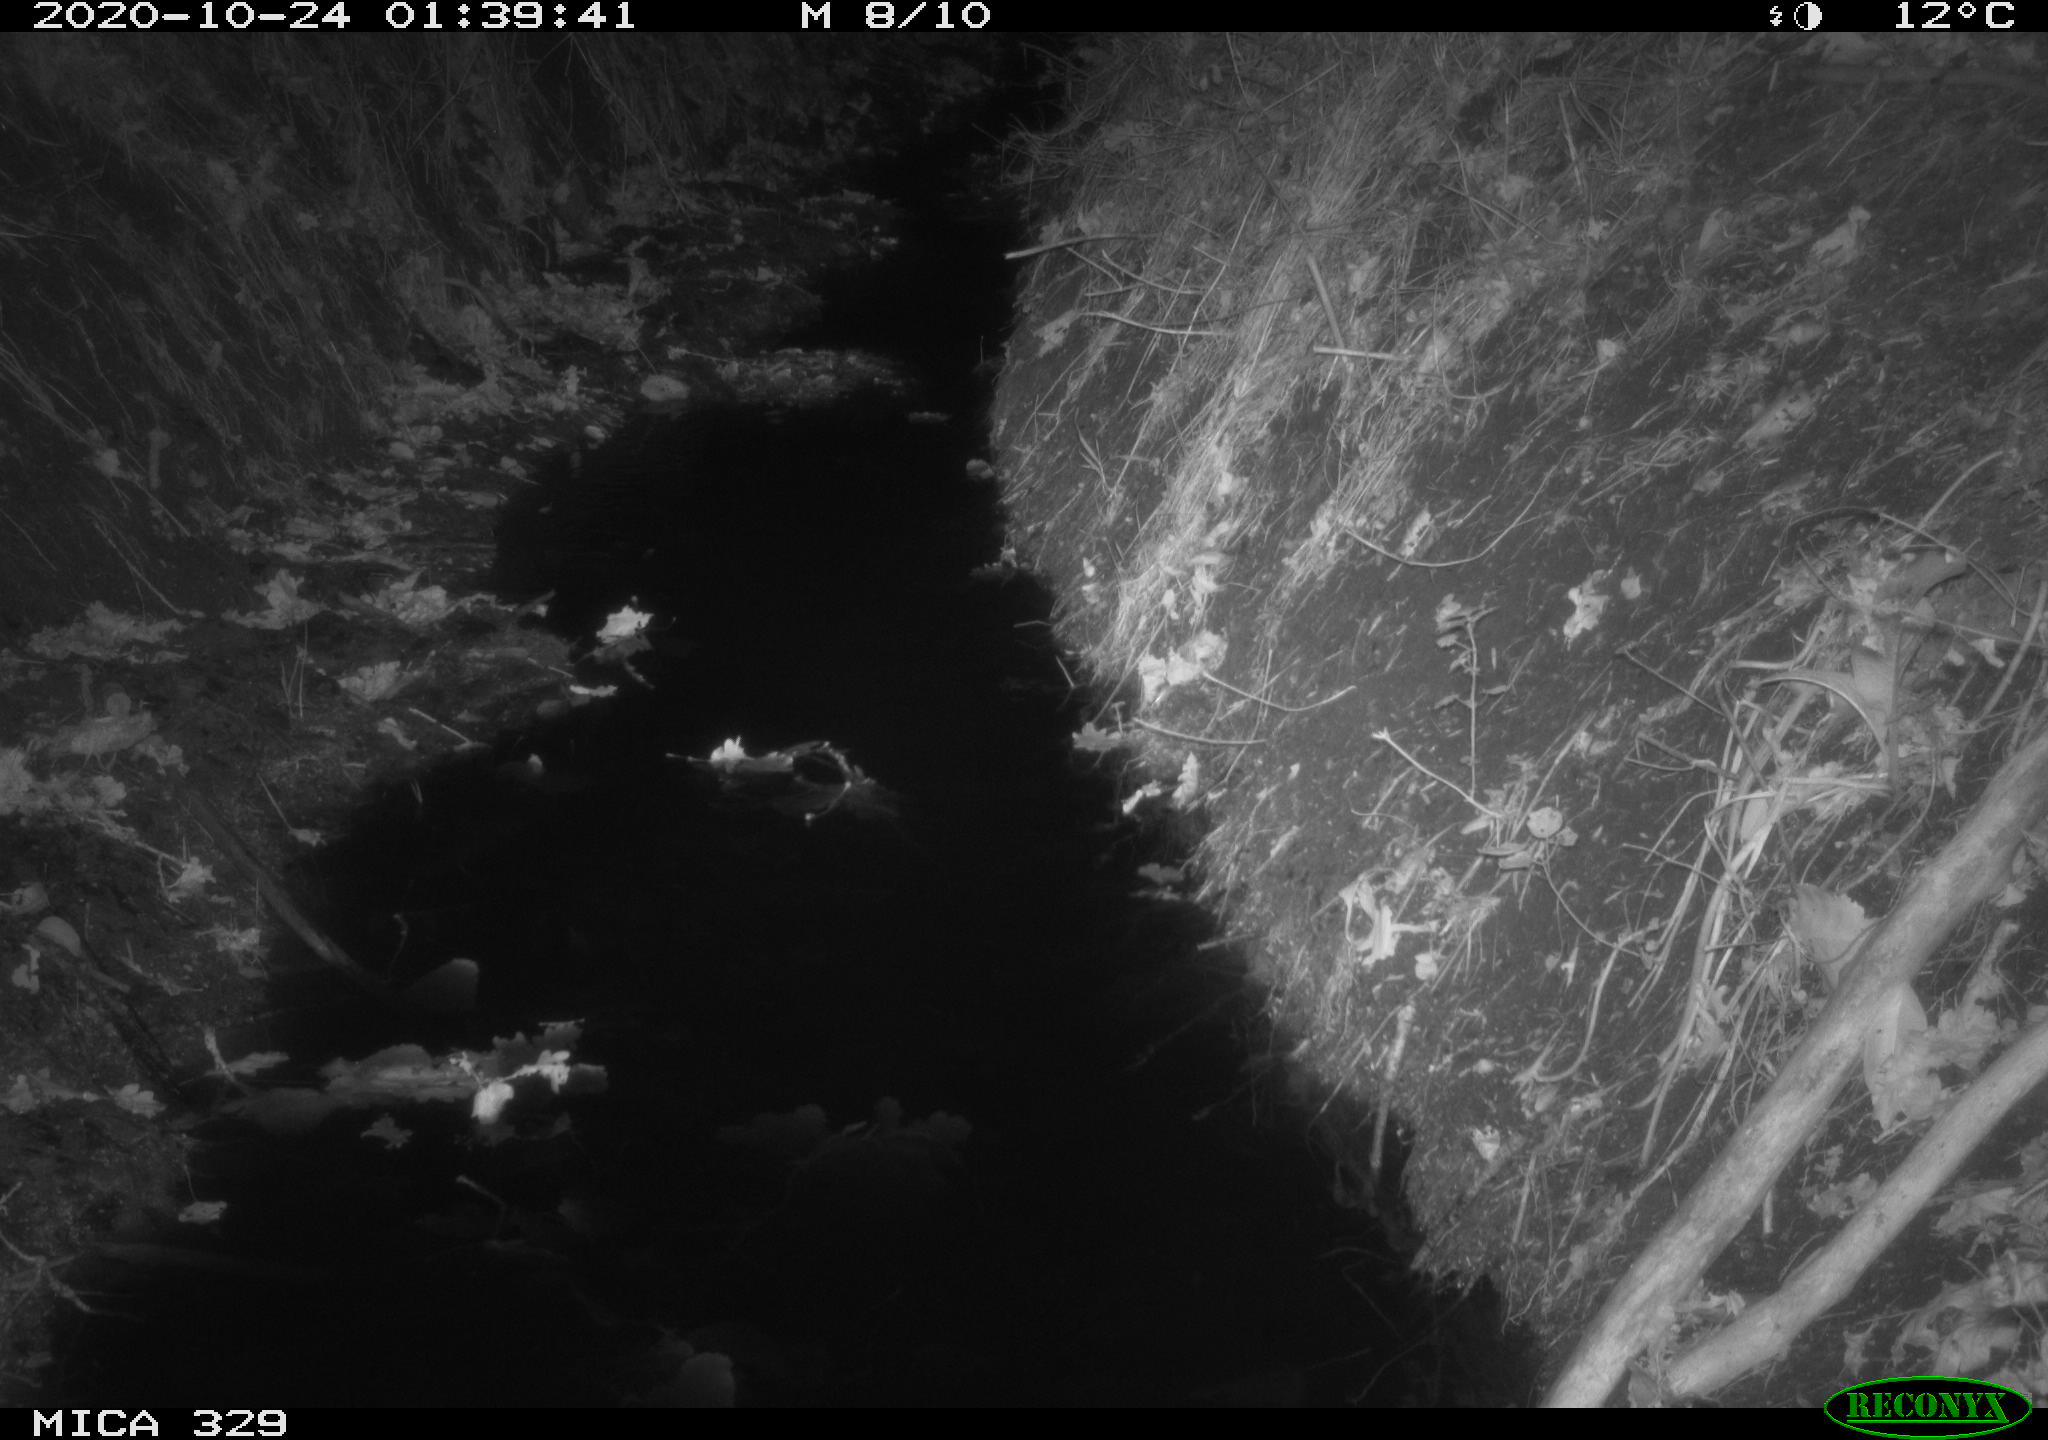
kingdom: Animalia
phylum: Chordata
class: Mammalia
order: Rodentia
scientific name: Rodentia
